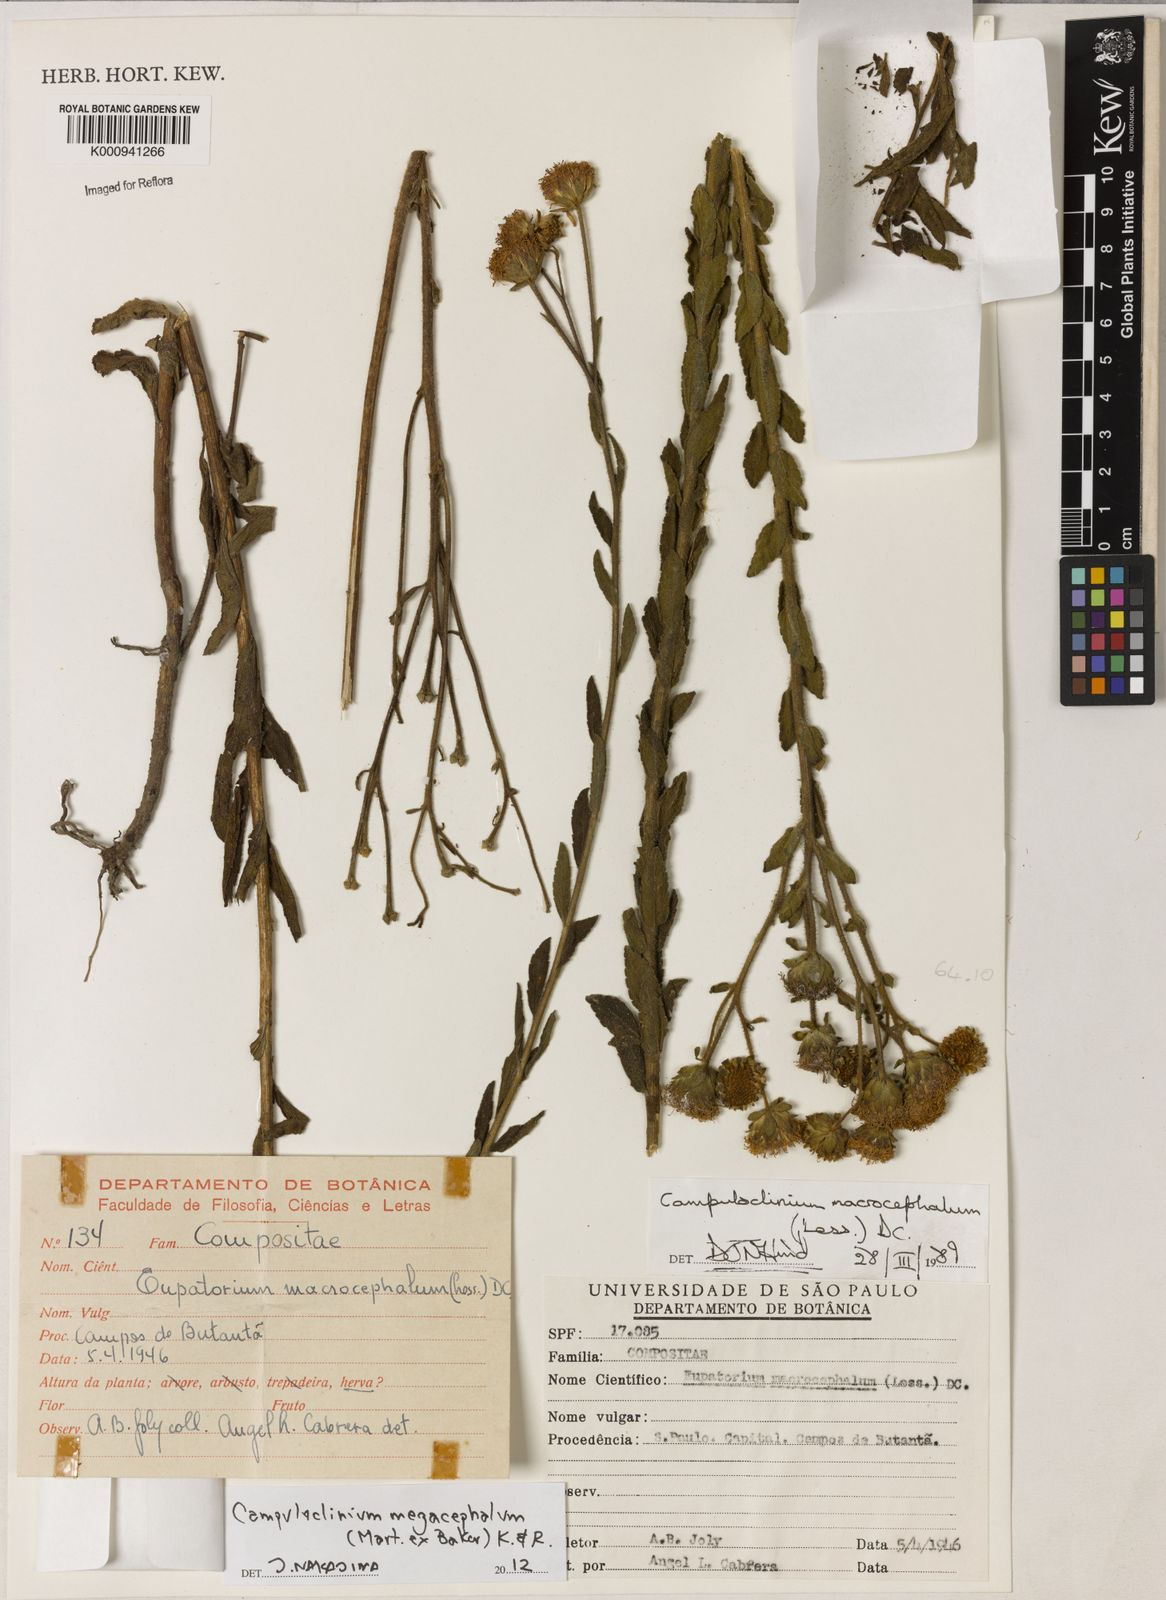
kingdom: Plantae
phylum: Tracheophyta
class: Magnoliopsida
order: Asterales
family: Asteraceae
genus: Campuloclinium
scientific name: Campuloclinium megacephalum
